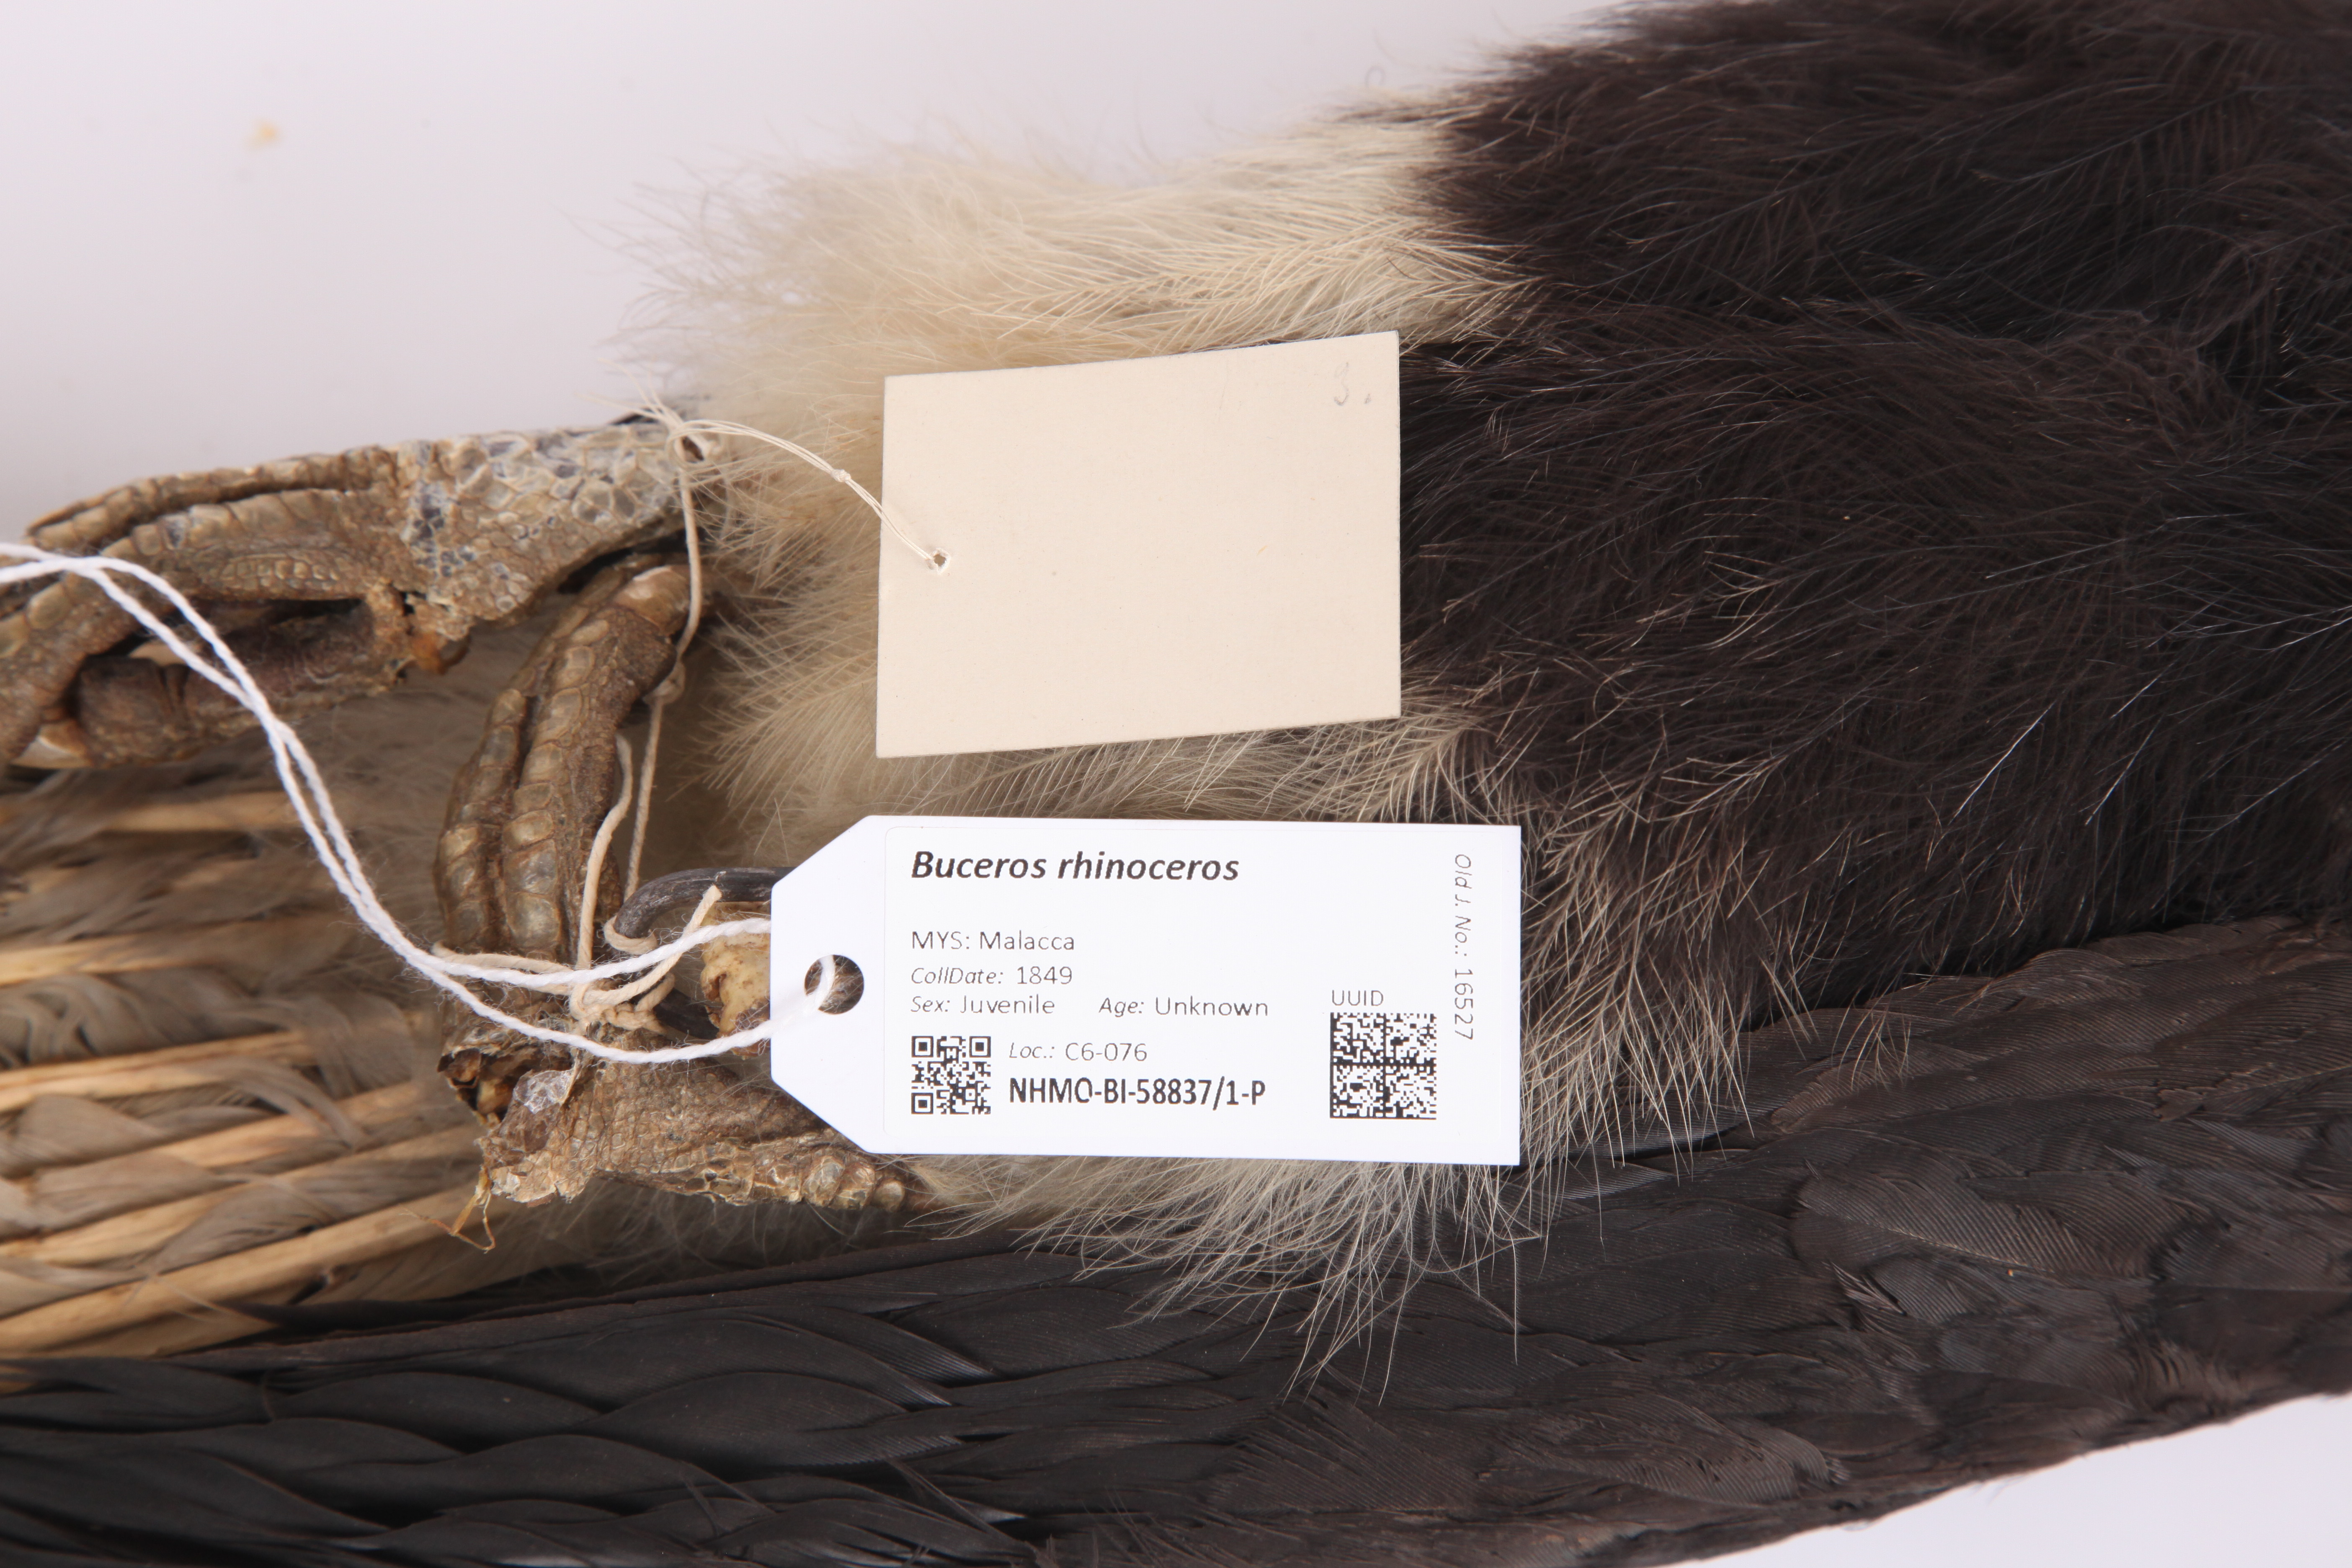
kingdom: Animalia
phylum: Chordata
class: Aves
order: Bucerotiformes
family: Bucerotidae
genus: Buceros
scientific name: Buceros rhinoceros
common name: Rhinoceros hornbill
